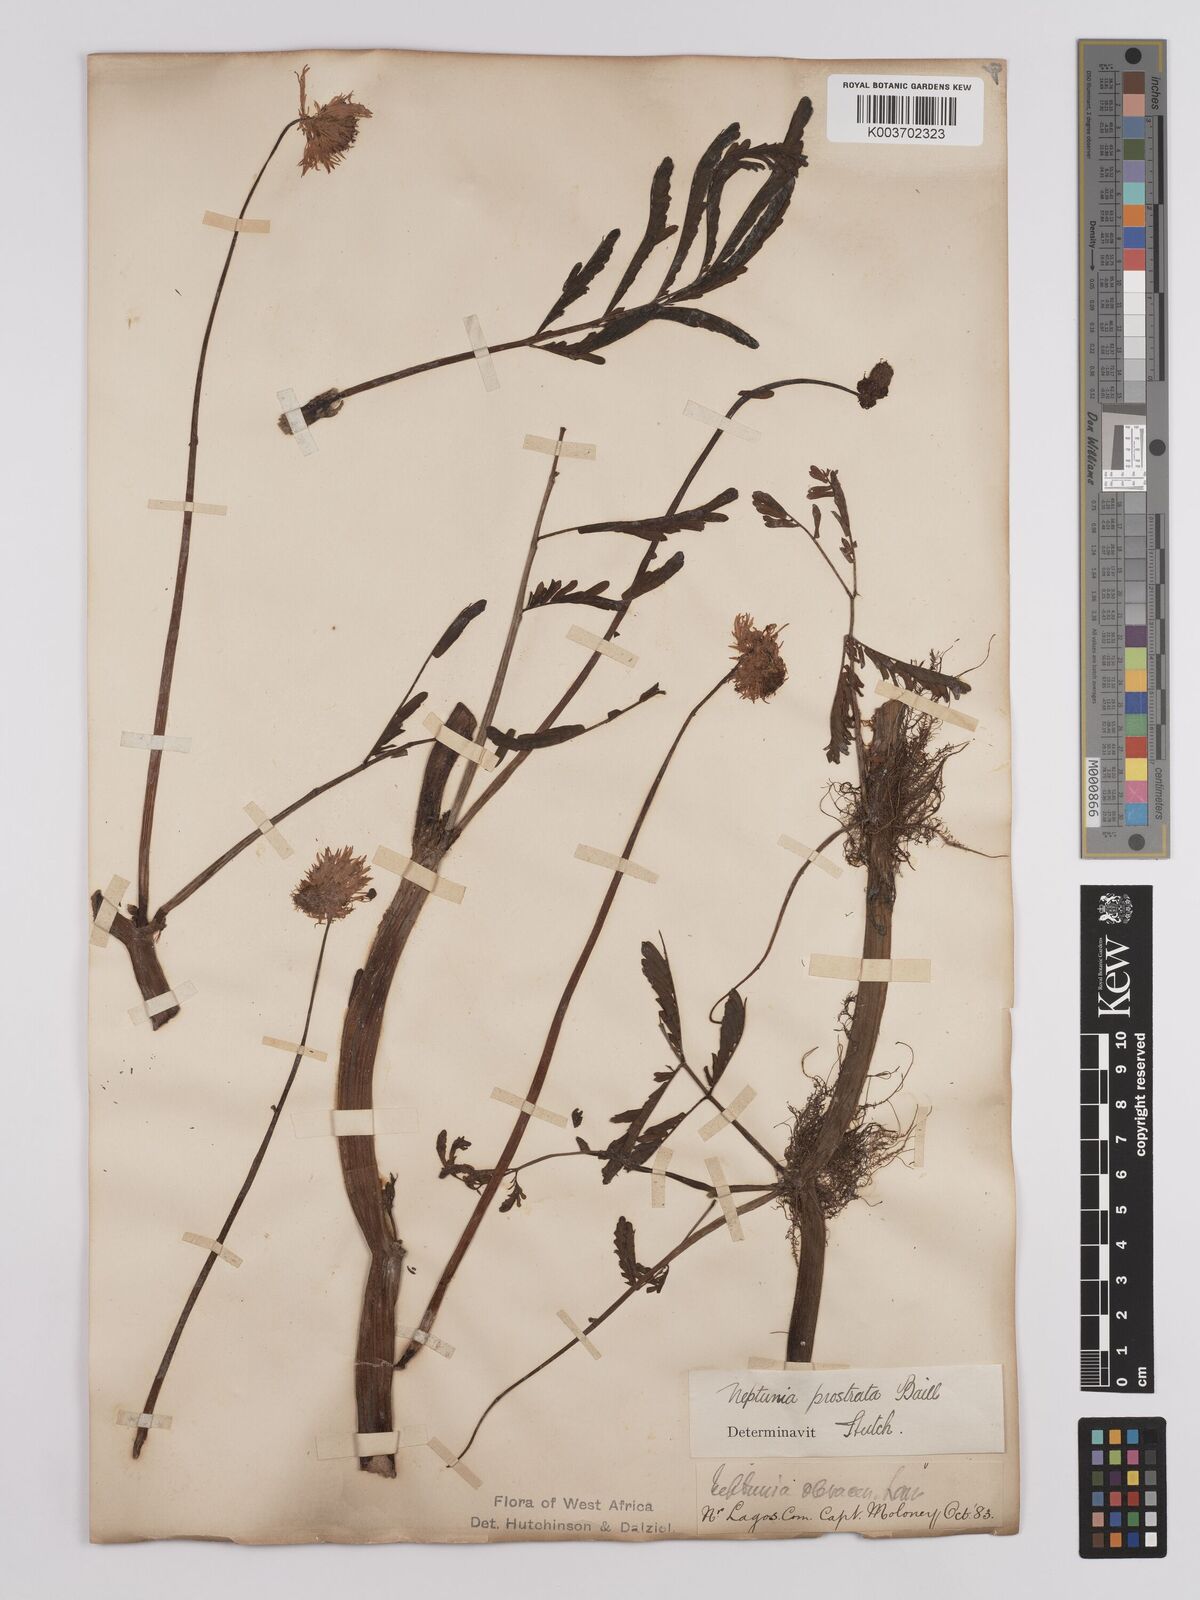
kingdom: Plantae
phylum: Tracheophyta
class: Magnoliopsida
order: Fabales
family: Fabaceae
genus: Neptunia
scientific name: Neptunia prostrata
